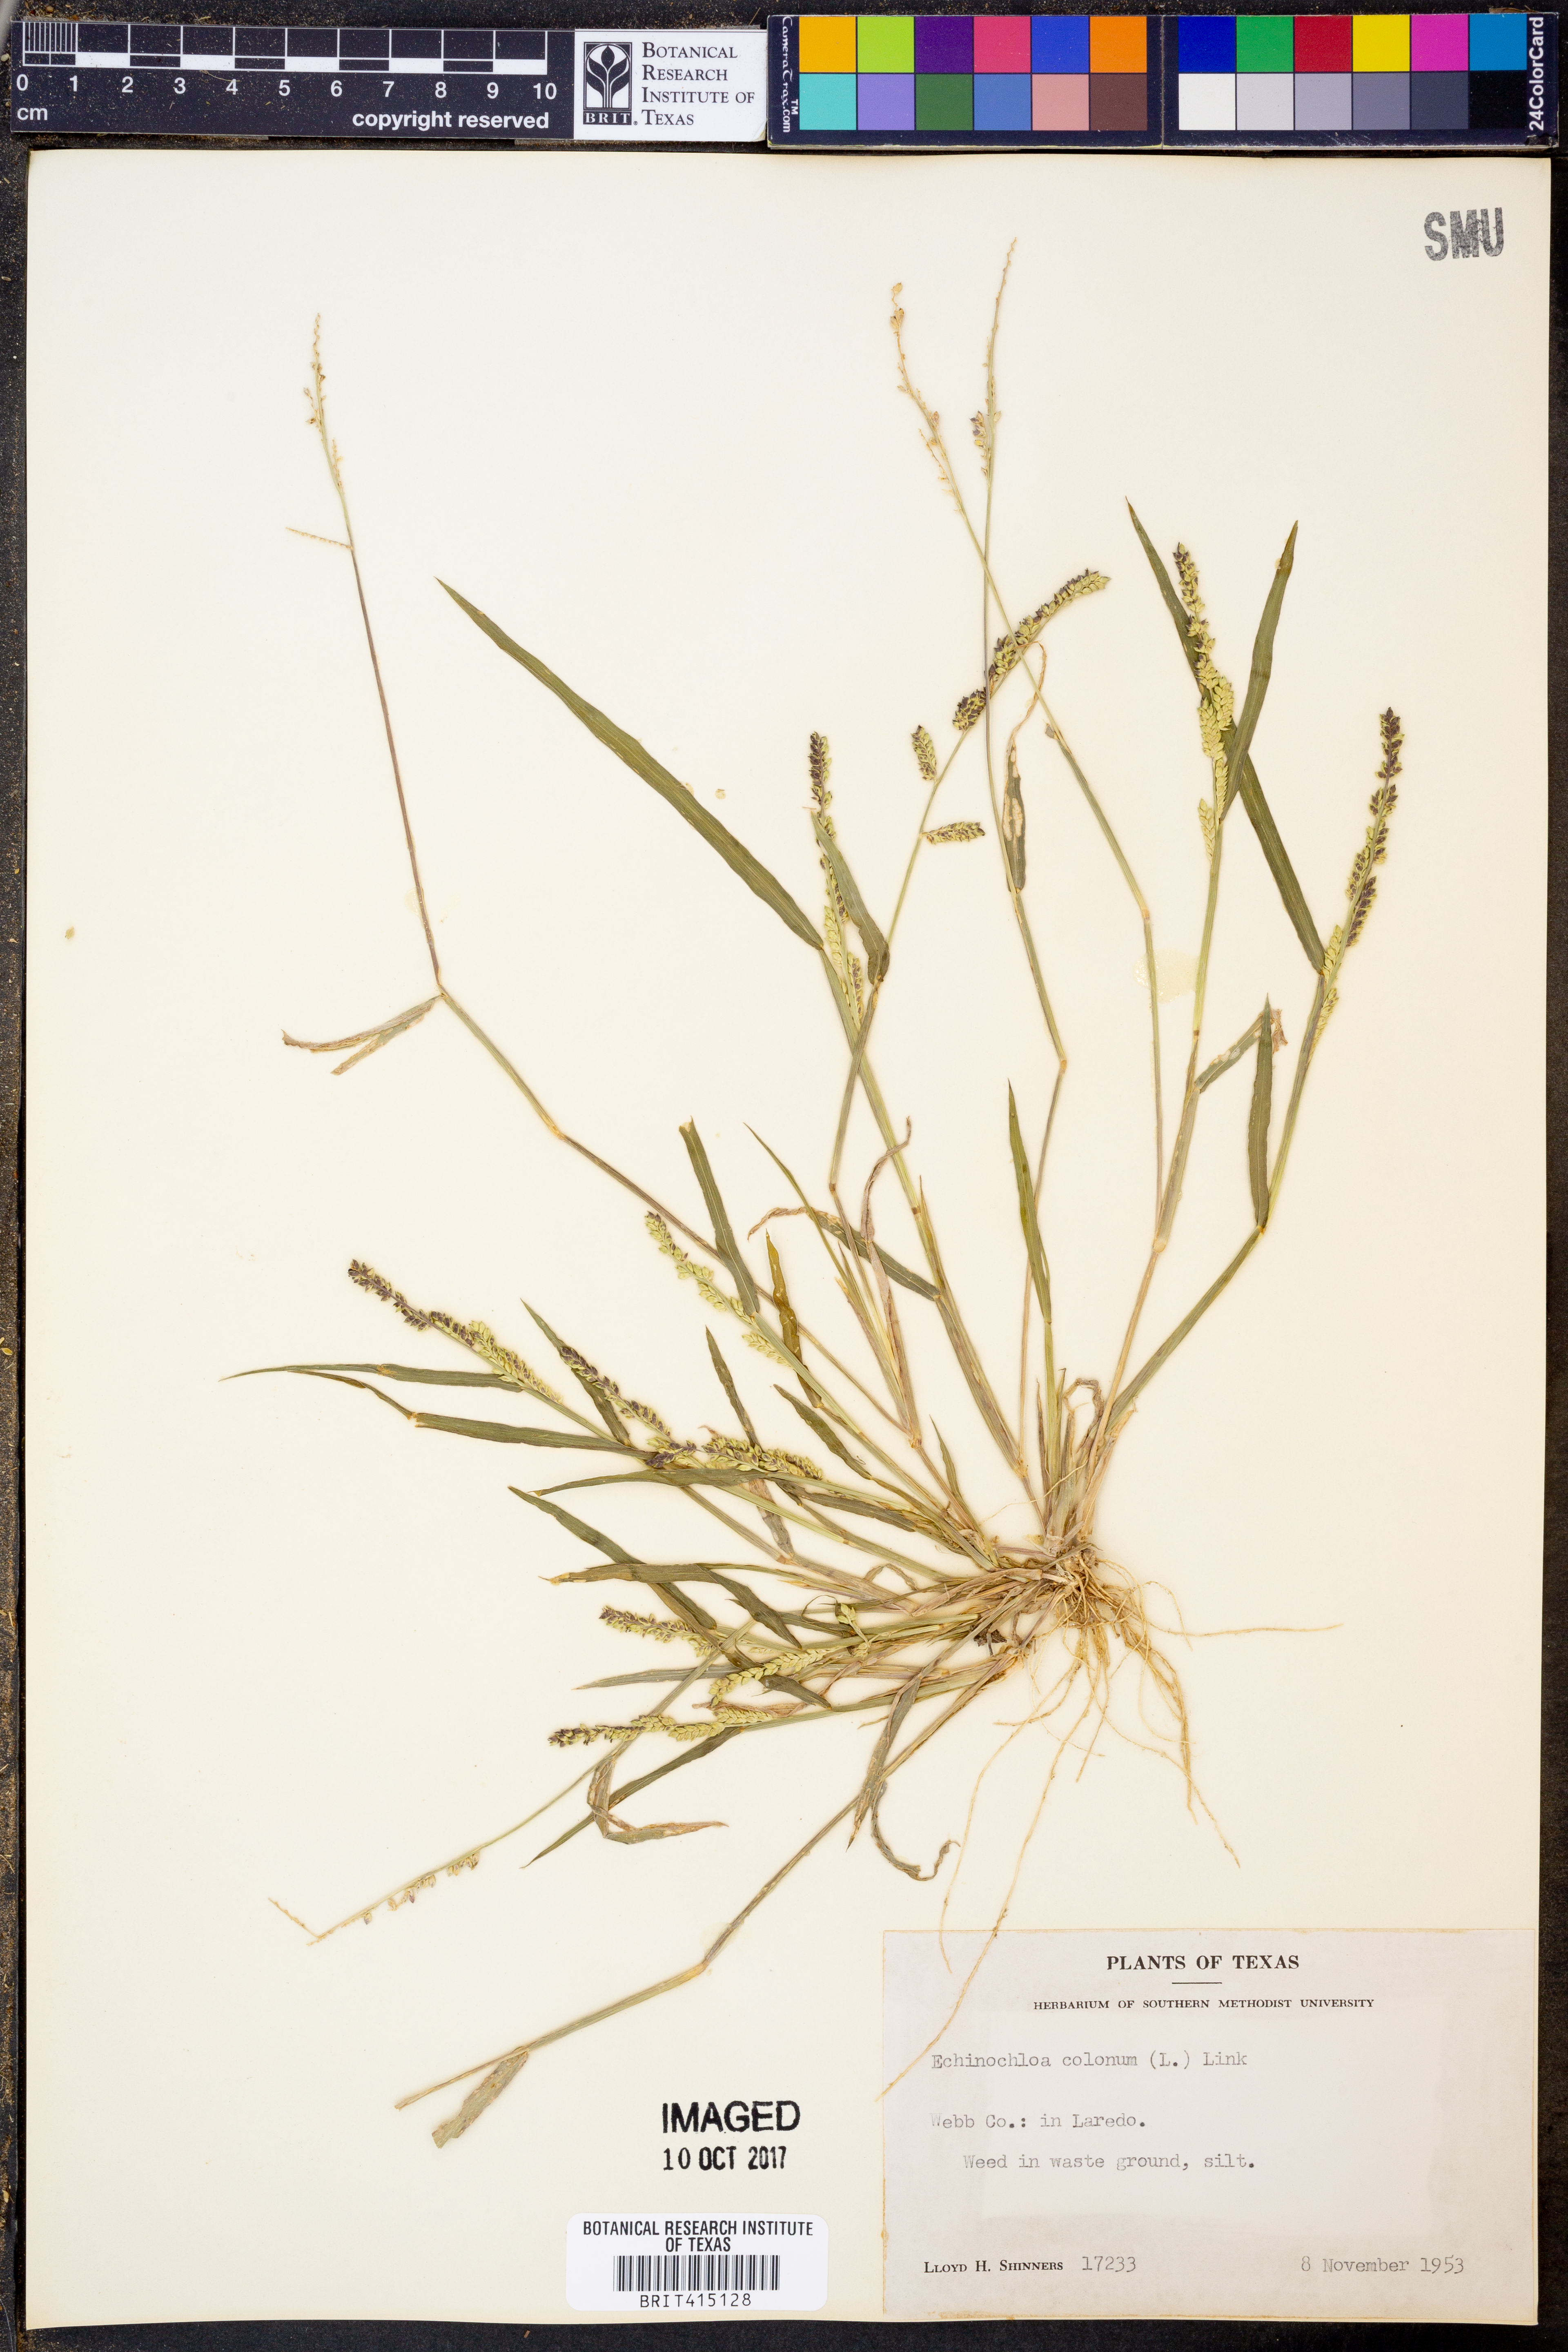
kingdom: Plantae
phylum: Tracheophyta
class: Liliopsida
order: Poales
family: Poaceae
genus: Echinochloa
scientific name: Echinochloa colonum
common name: Jungle rice
